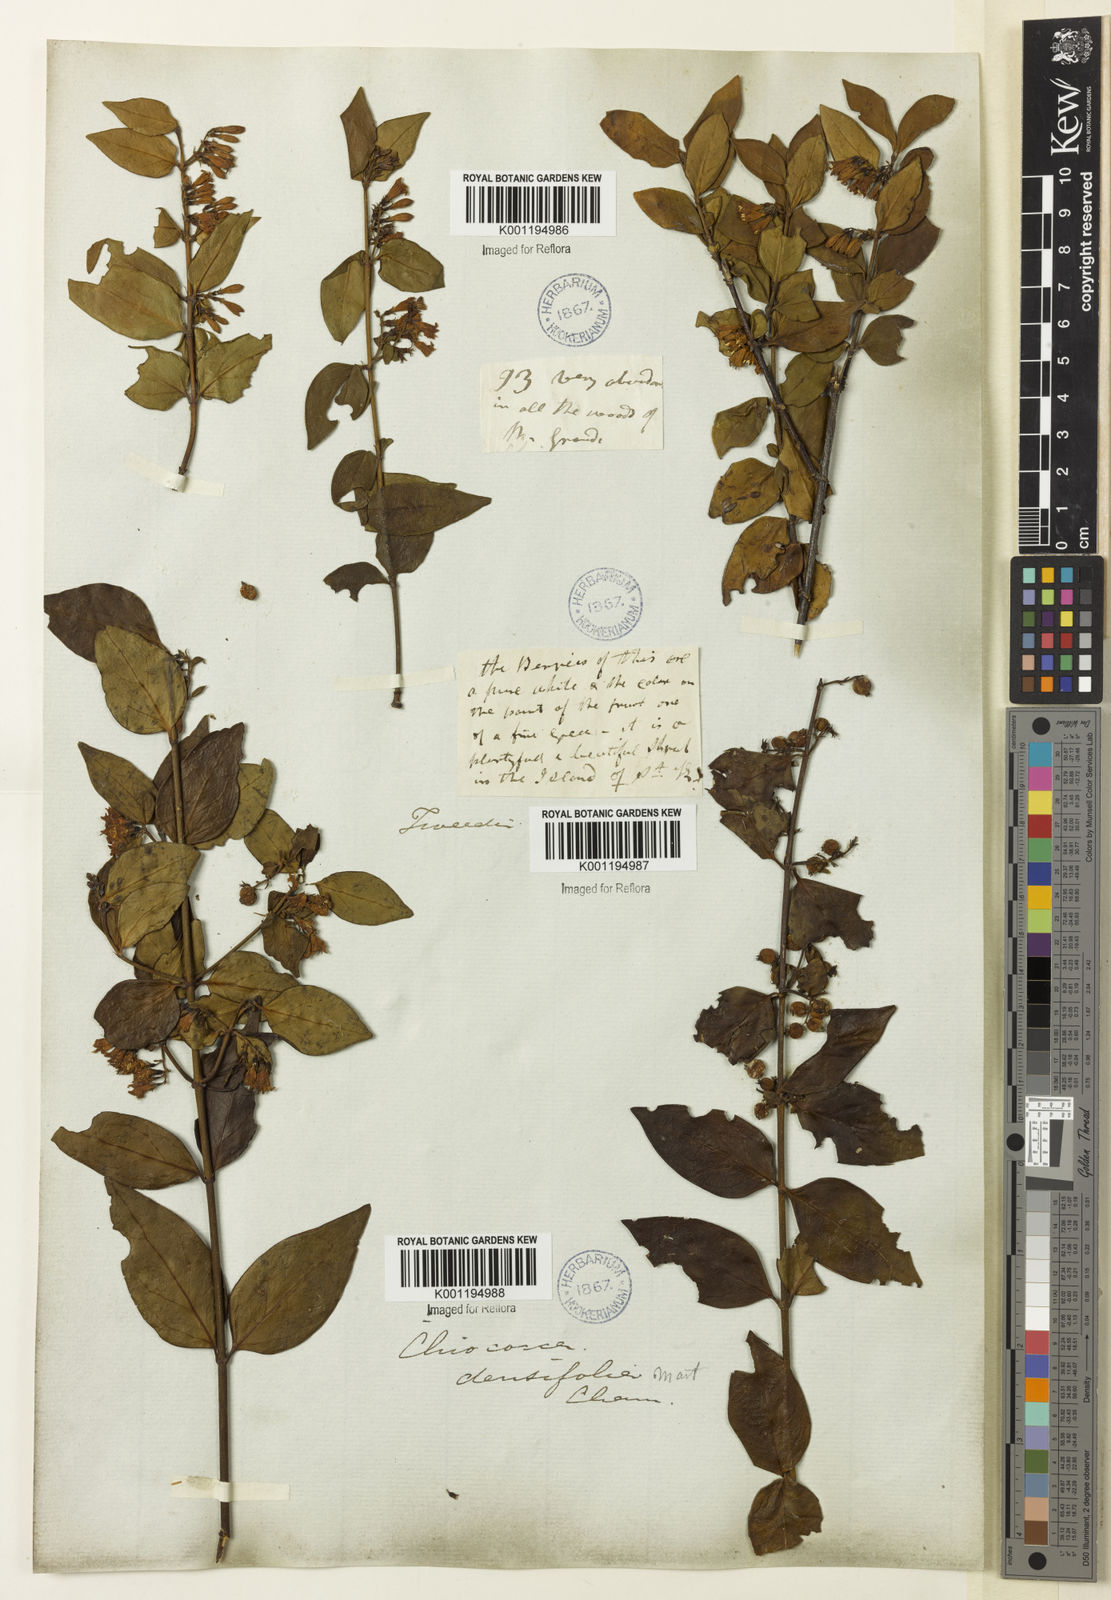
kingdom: Plantae
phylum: Tracheophyta
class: Magnoliopsida
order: Gentianales
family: Rubiaceae
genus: Chiococca
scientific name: Chiococca alba
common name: Snowberry
